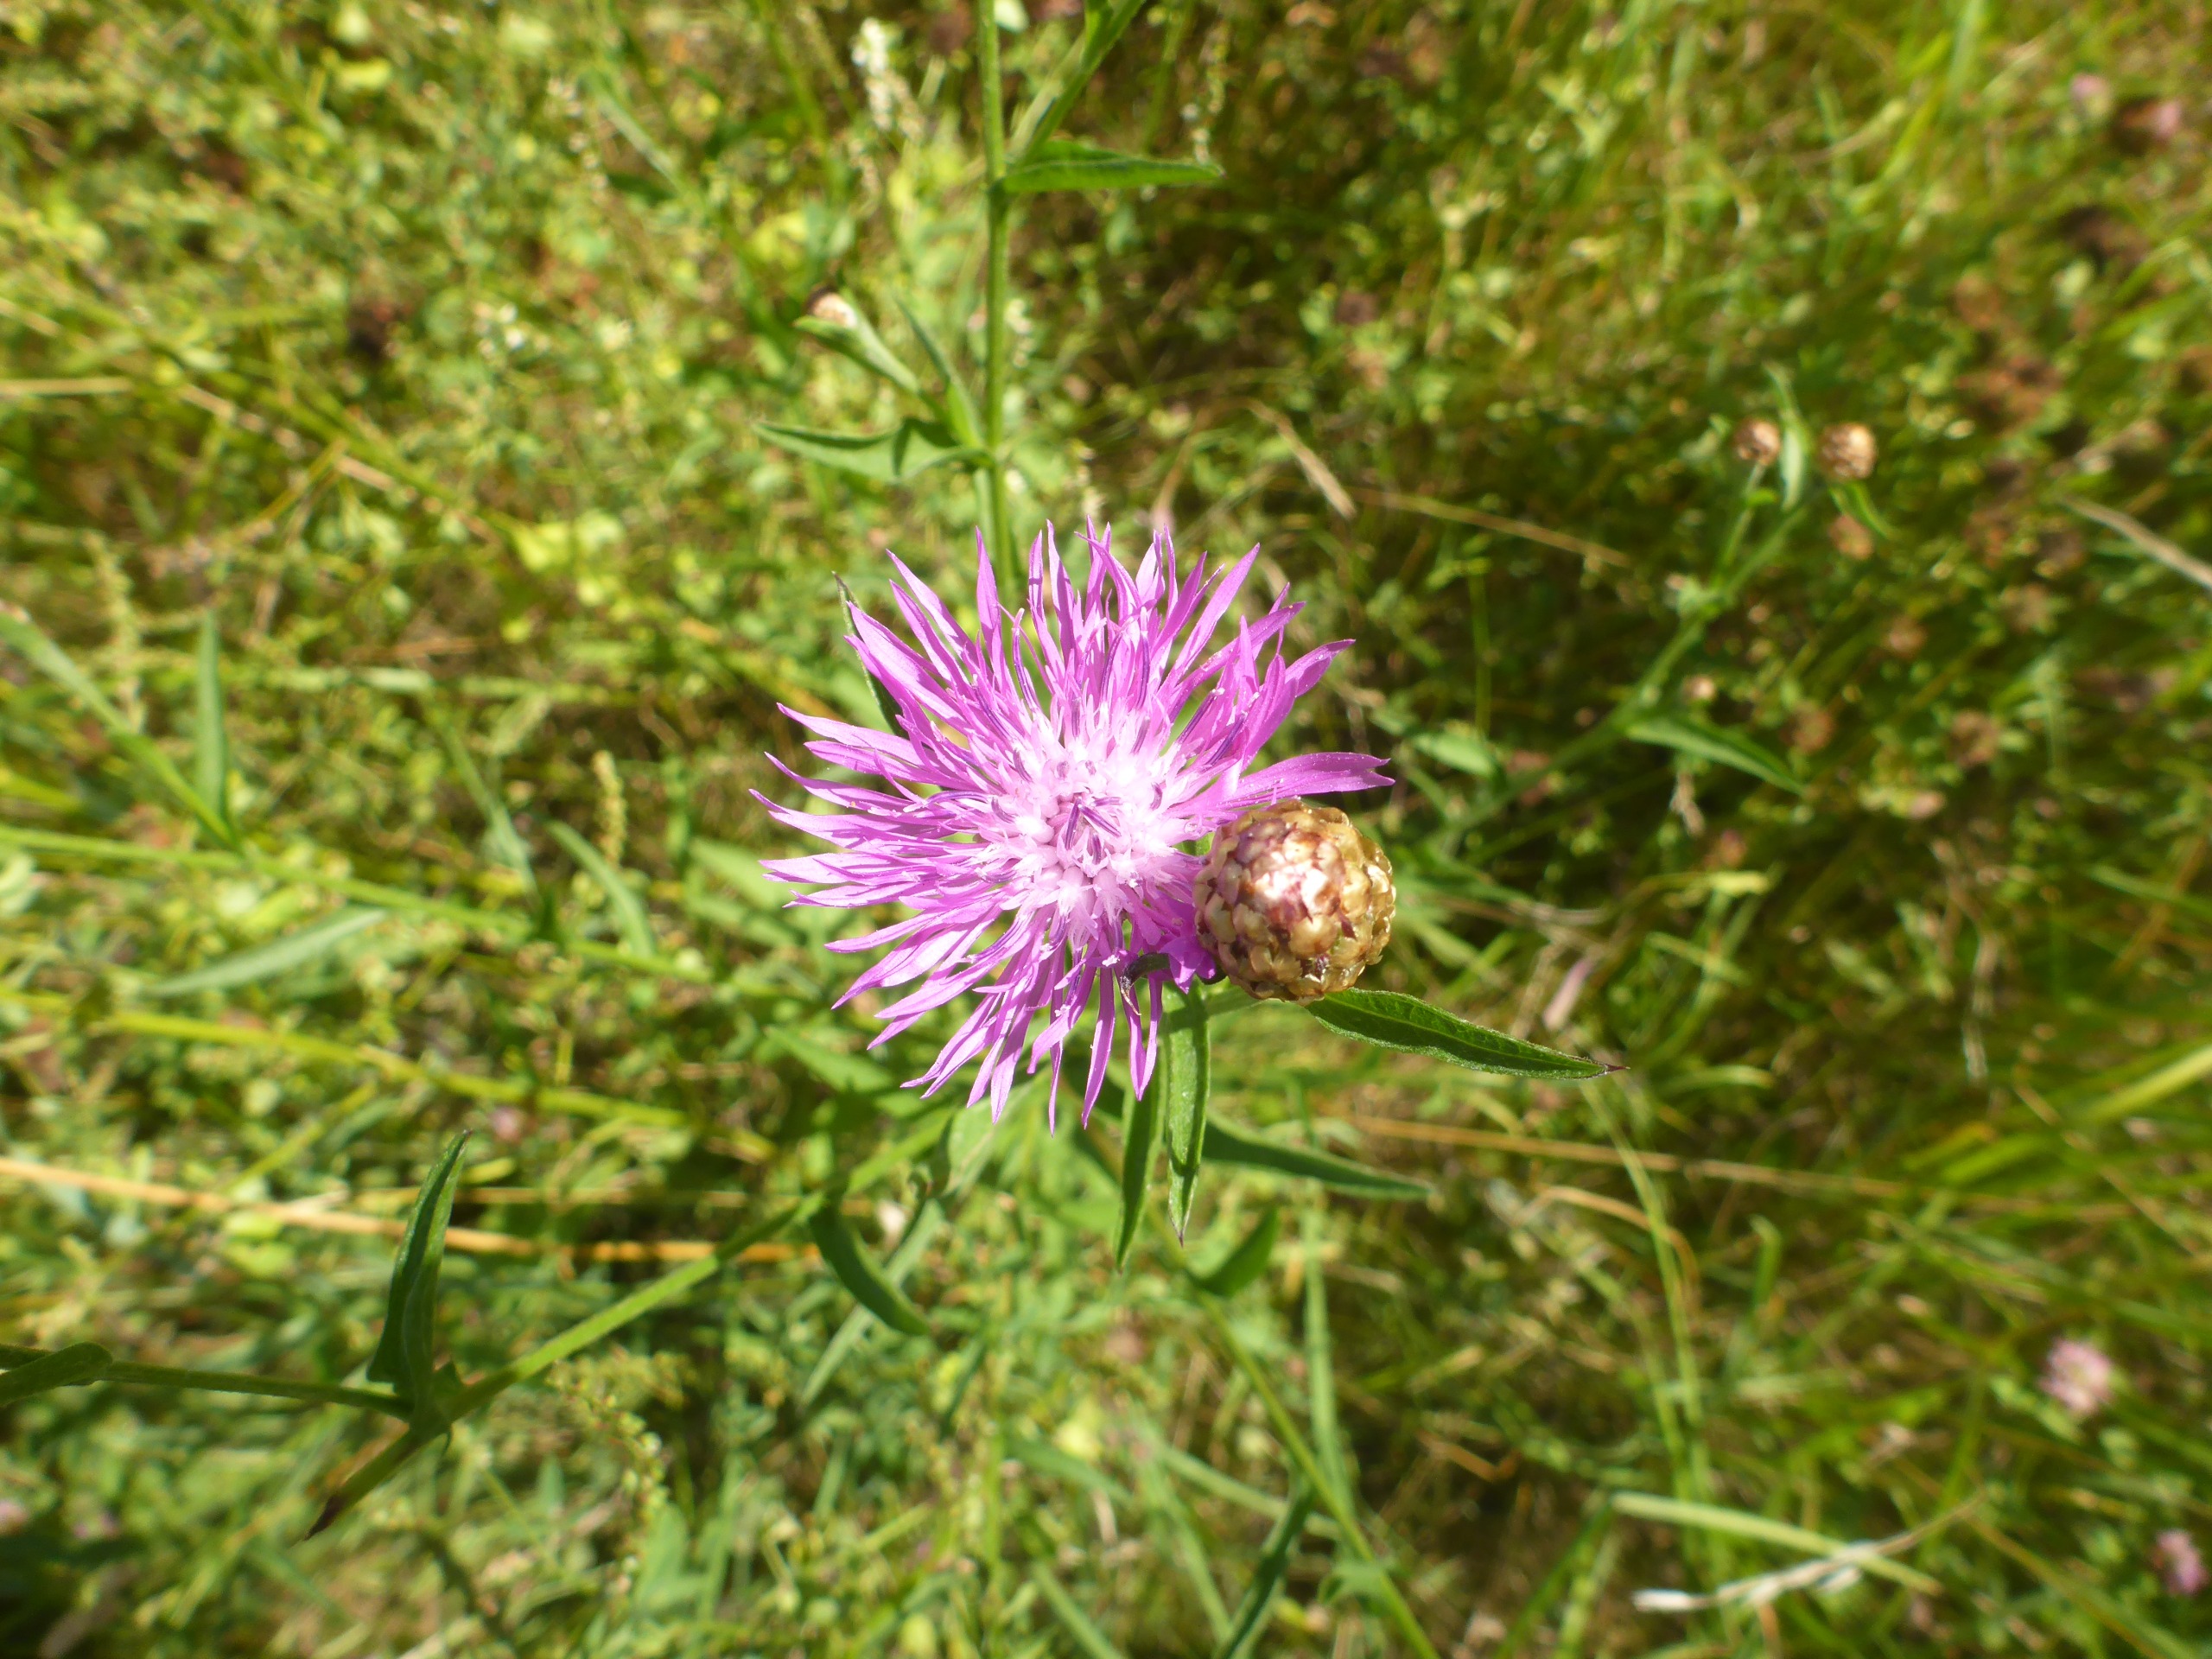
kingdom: Plantae
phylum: Tracheophyta
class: Magnoliopsida
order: Asterales
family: Asteraceae
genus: Centaurea
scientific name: Centaurea jacea
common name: Almindelig knopurt
